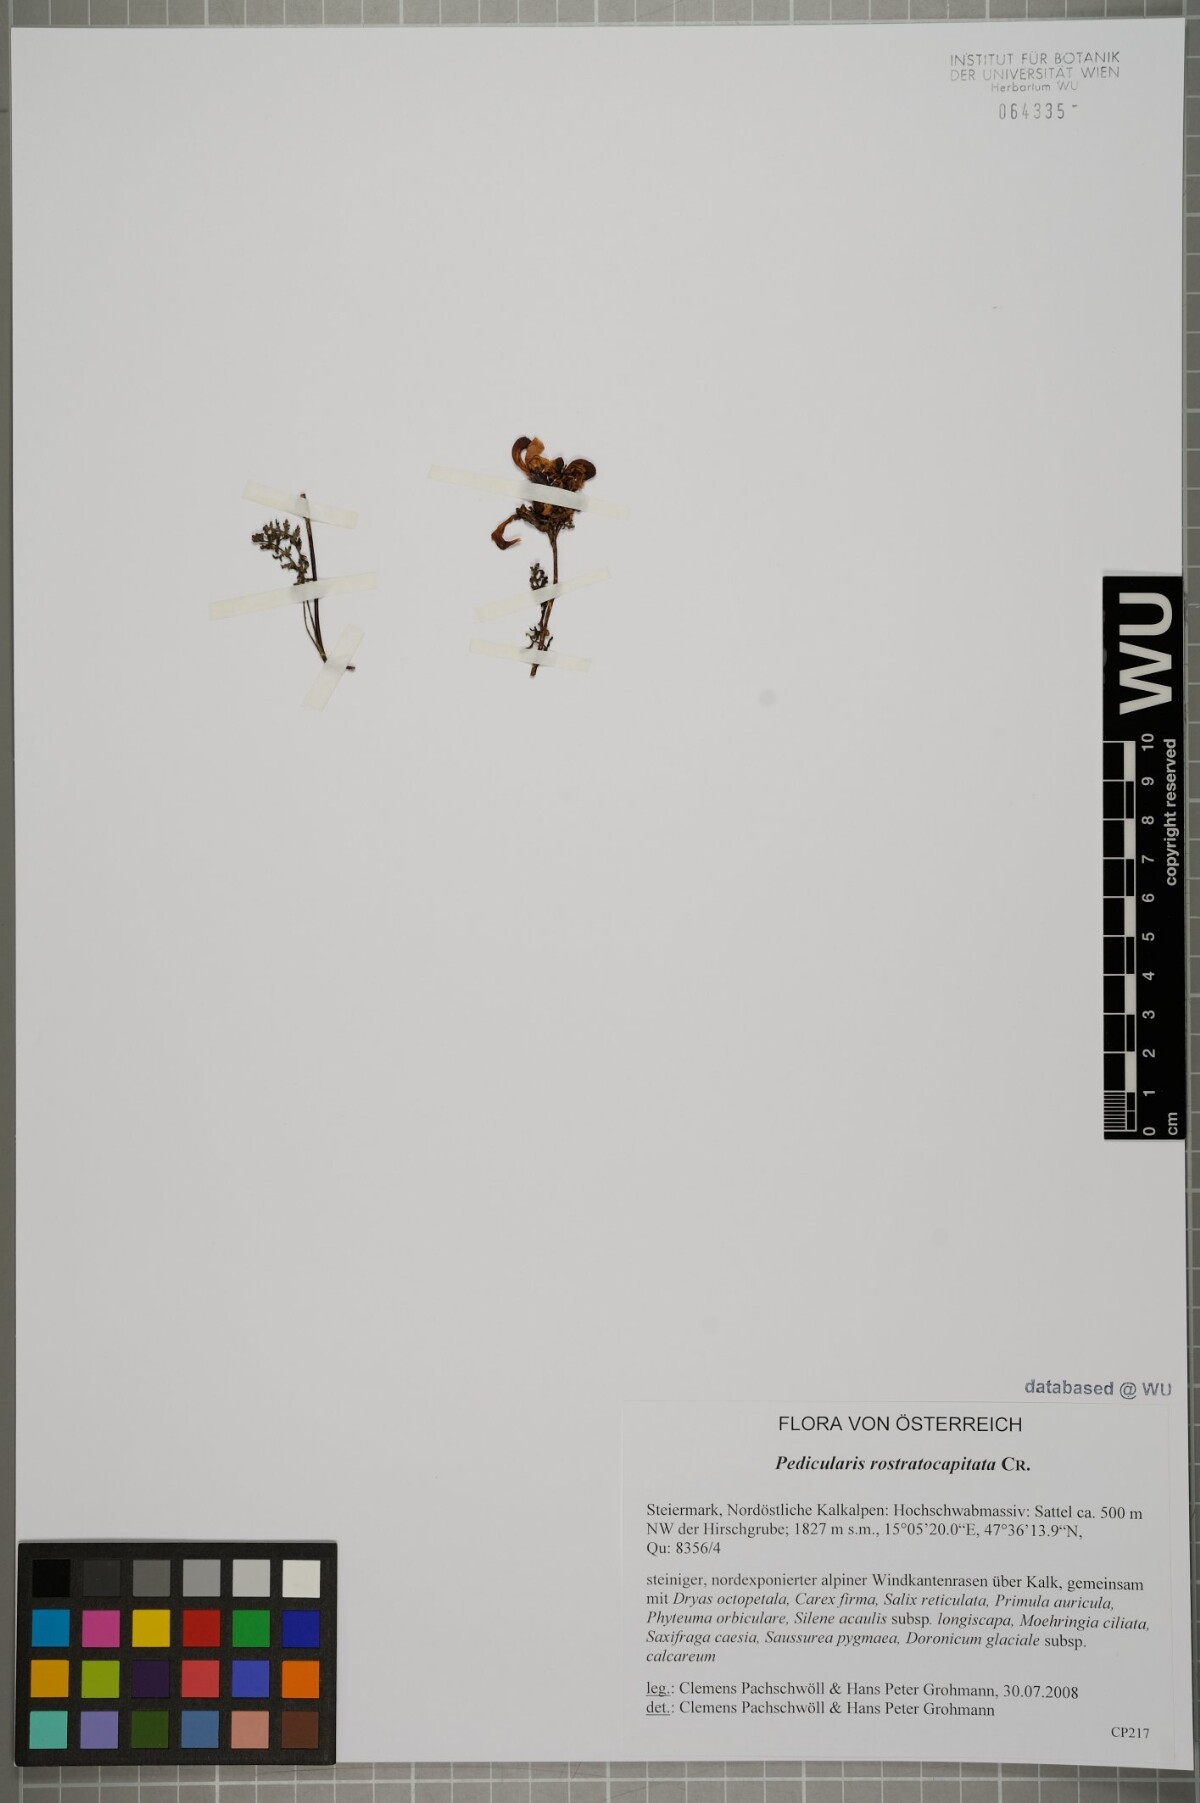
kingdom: Plantae
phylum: Tracheophyta
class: Magnoliopsida
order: Lamiales
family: Orobanchaceae
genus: Pedicularis
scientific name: Pedicularis rostratocapitata
